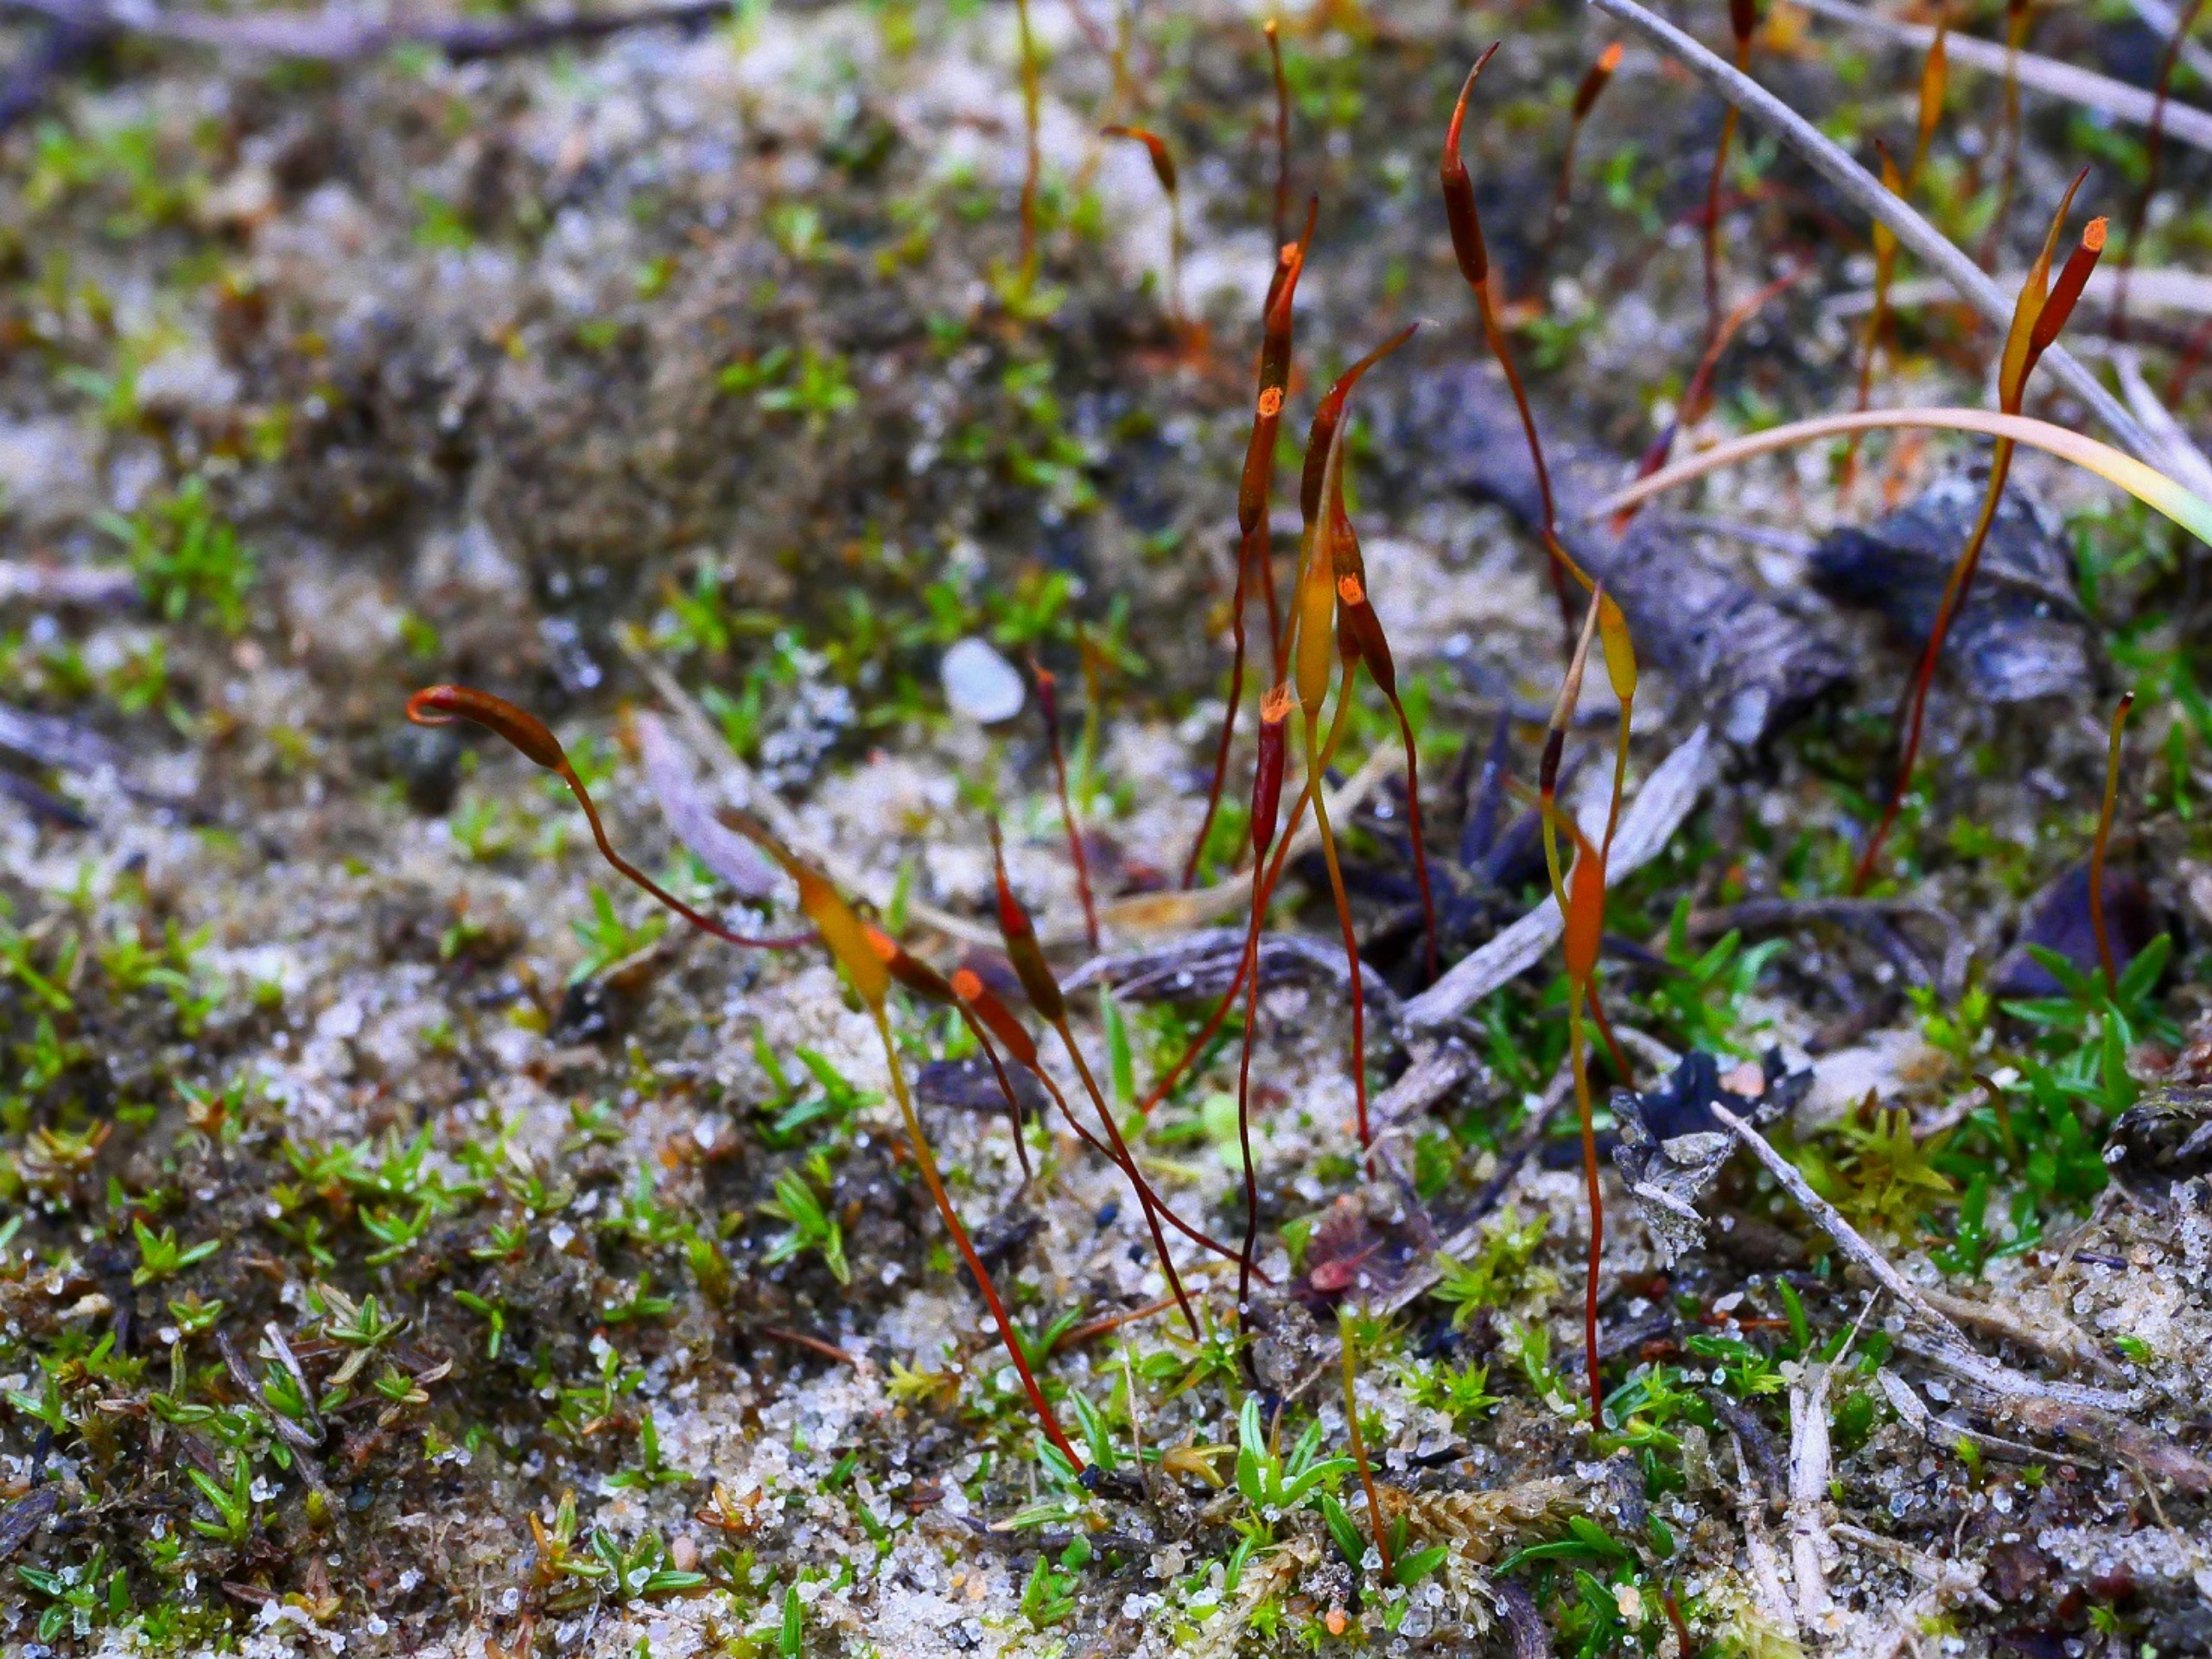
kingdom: Plantae
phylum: Bryophyta
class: Bryopsida
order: Pottiales
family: Pottiaceae
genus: Aloina
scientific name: Aloina ambigua
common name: Krog-tøffelmos
